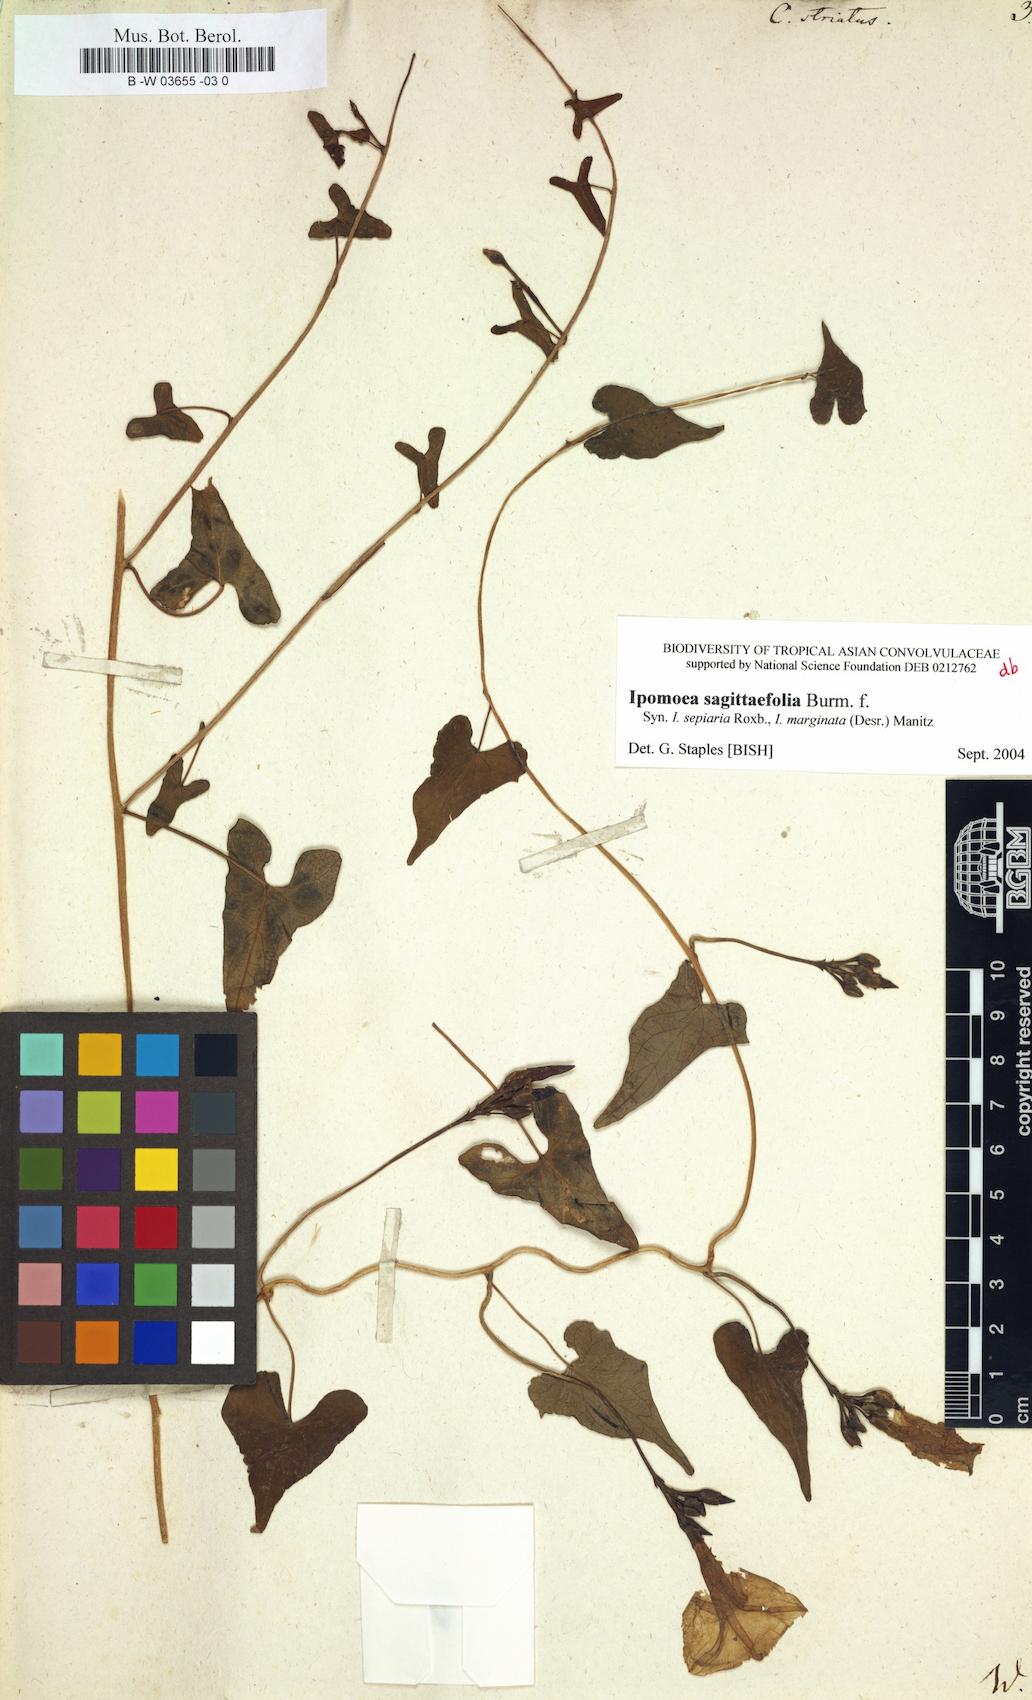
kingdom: Plantae
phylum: Tracheophyta
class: Magnoliopsida
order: Solanales
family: Convolvulaceae
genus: Merremia
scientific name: Merremia gemella
